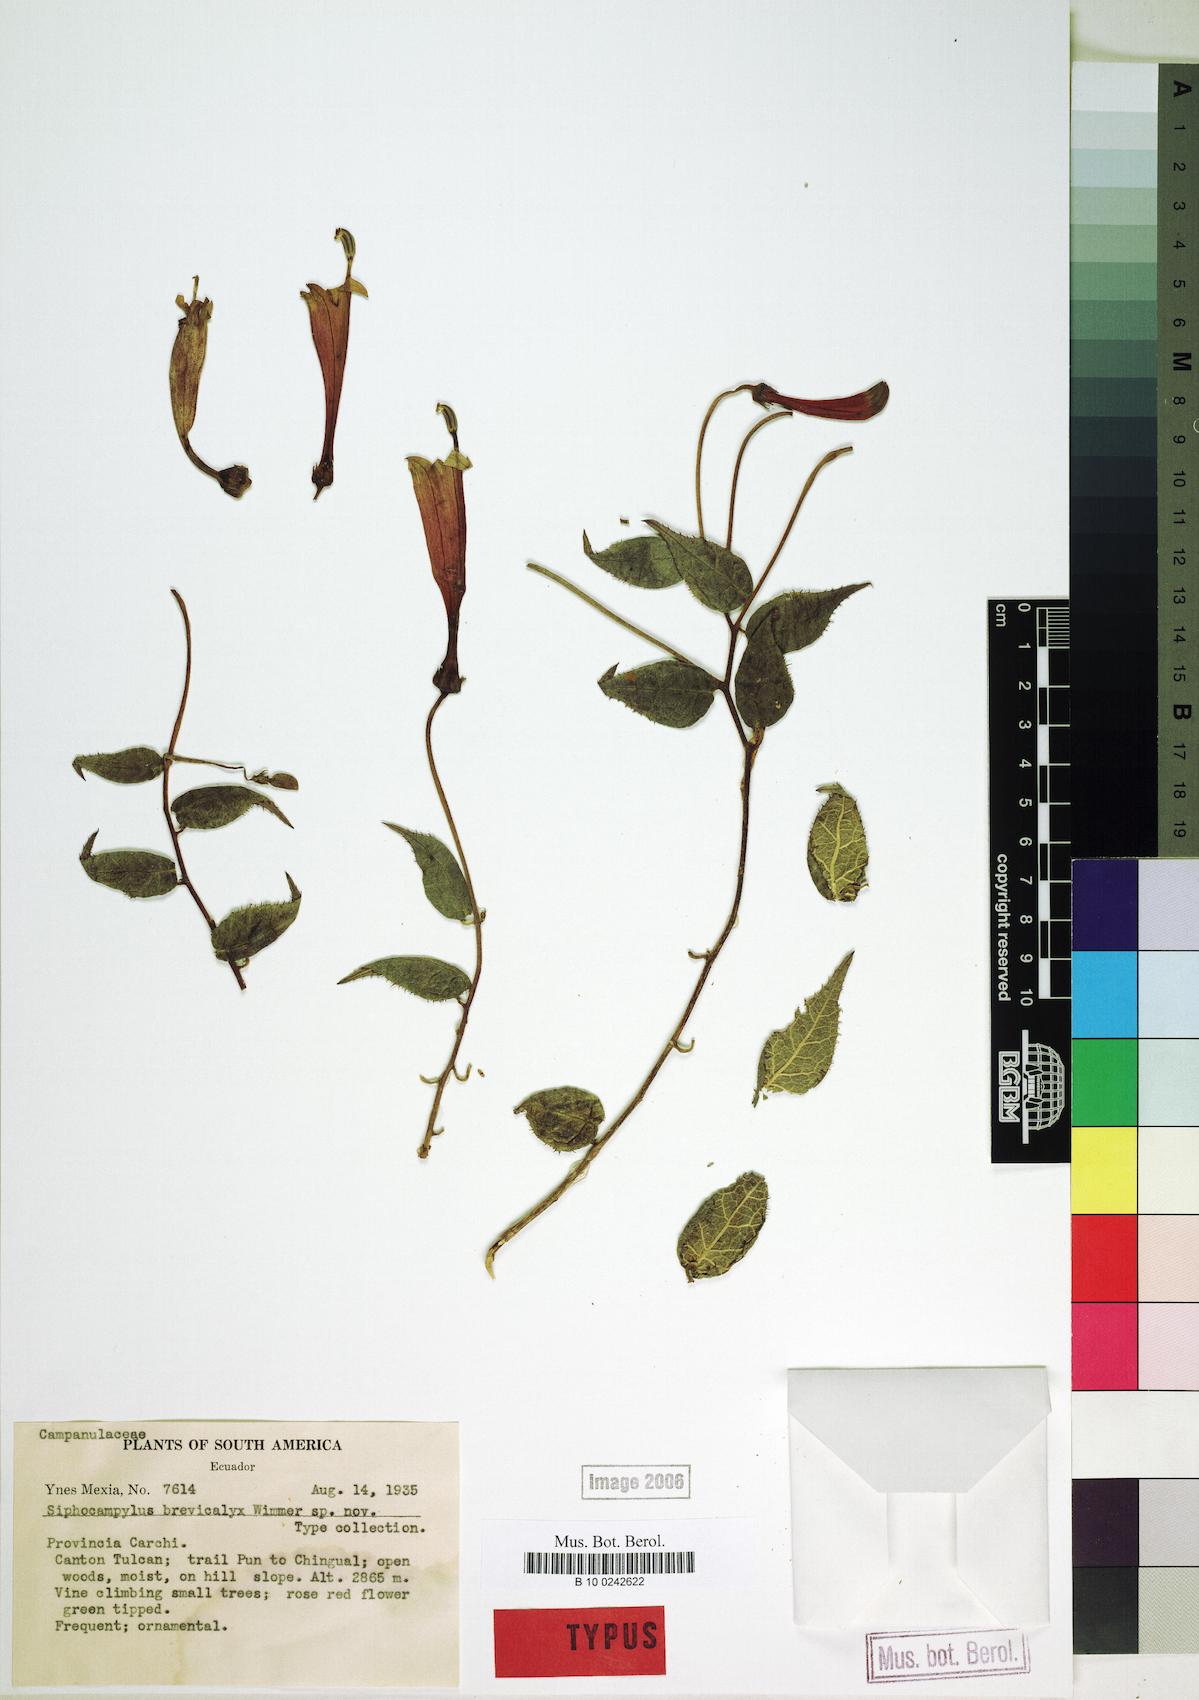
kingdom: Plantae
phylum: Tracheophyta
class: Magnoliopsida
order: Asterales
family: Campanulaceae
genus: Siphocampylus
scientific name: Siphocampylus brevicalyx
